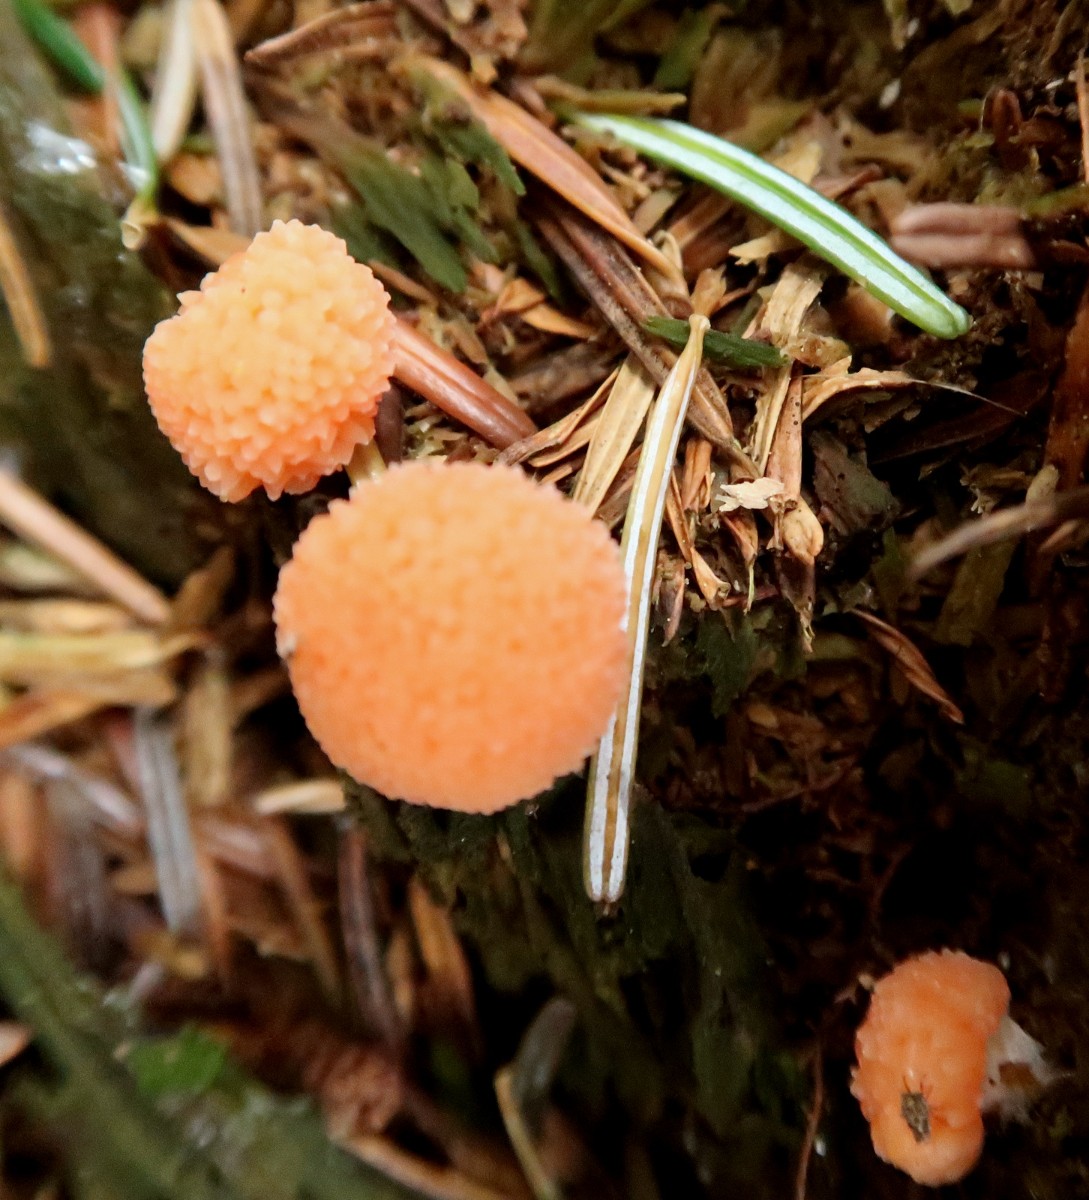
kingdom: Protozoa
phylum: Mycetozoa
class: Myxomycetes
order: Cribrariales
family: Tubiferaceae
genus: Tubifera
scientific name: Tubifera ferruginosa
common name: kanel-støvrør
